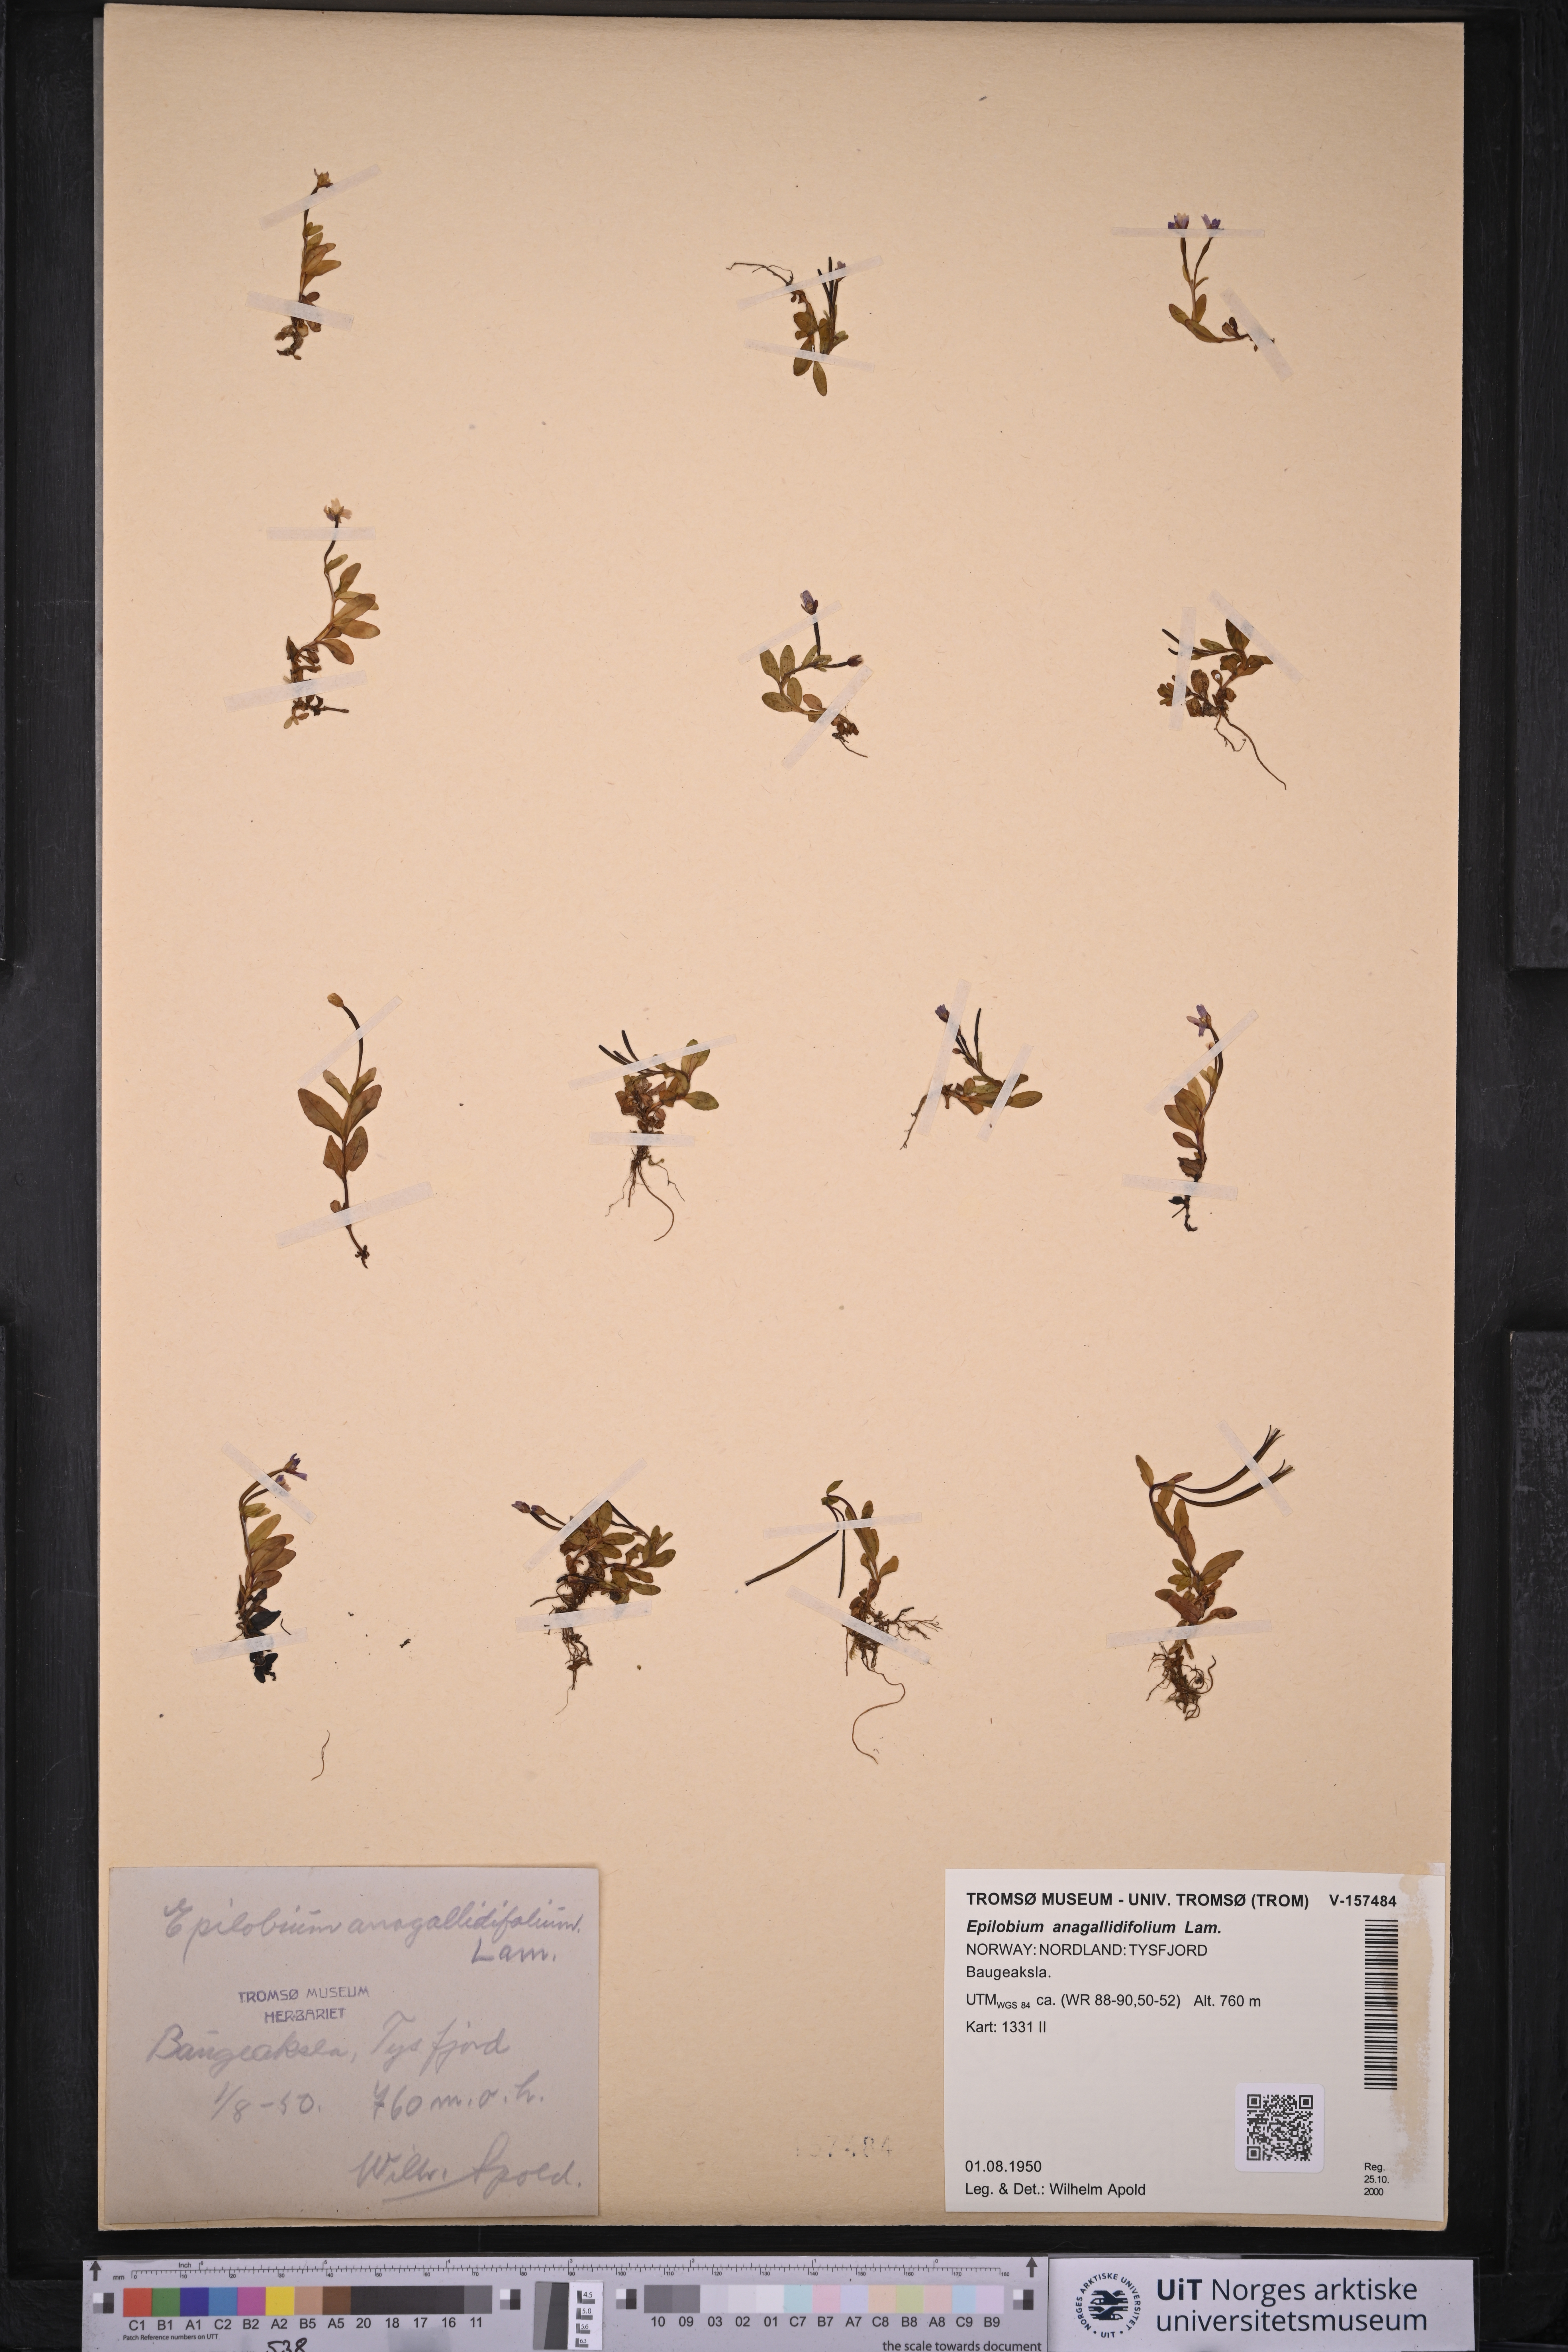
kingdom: Plantae
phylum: Tracheophyta
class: Magnoliopsida
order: Myrtales
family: Onagraceae
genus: Epilobium
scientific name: Epilobium anagallidifolium
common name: Alpine willowherb
